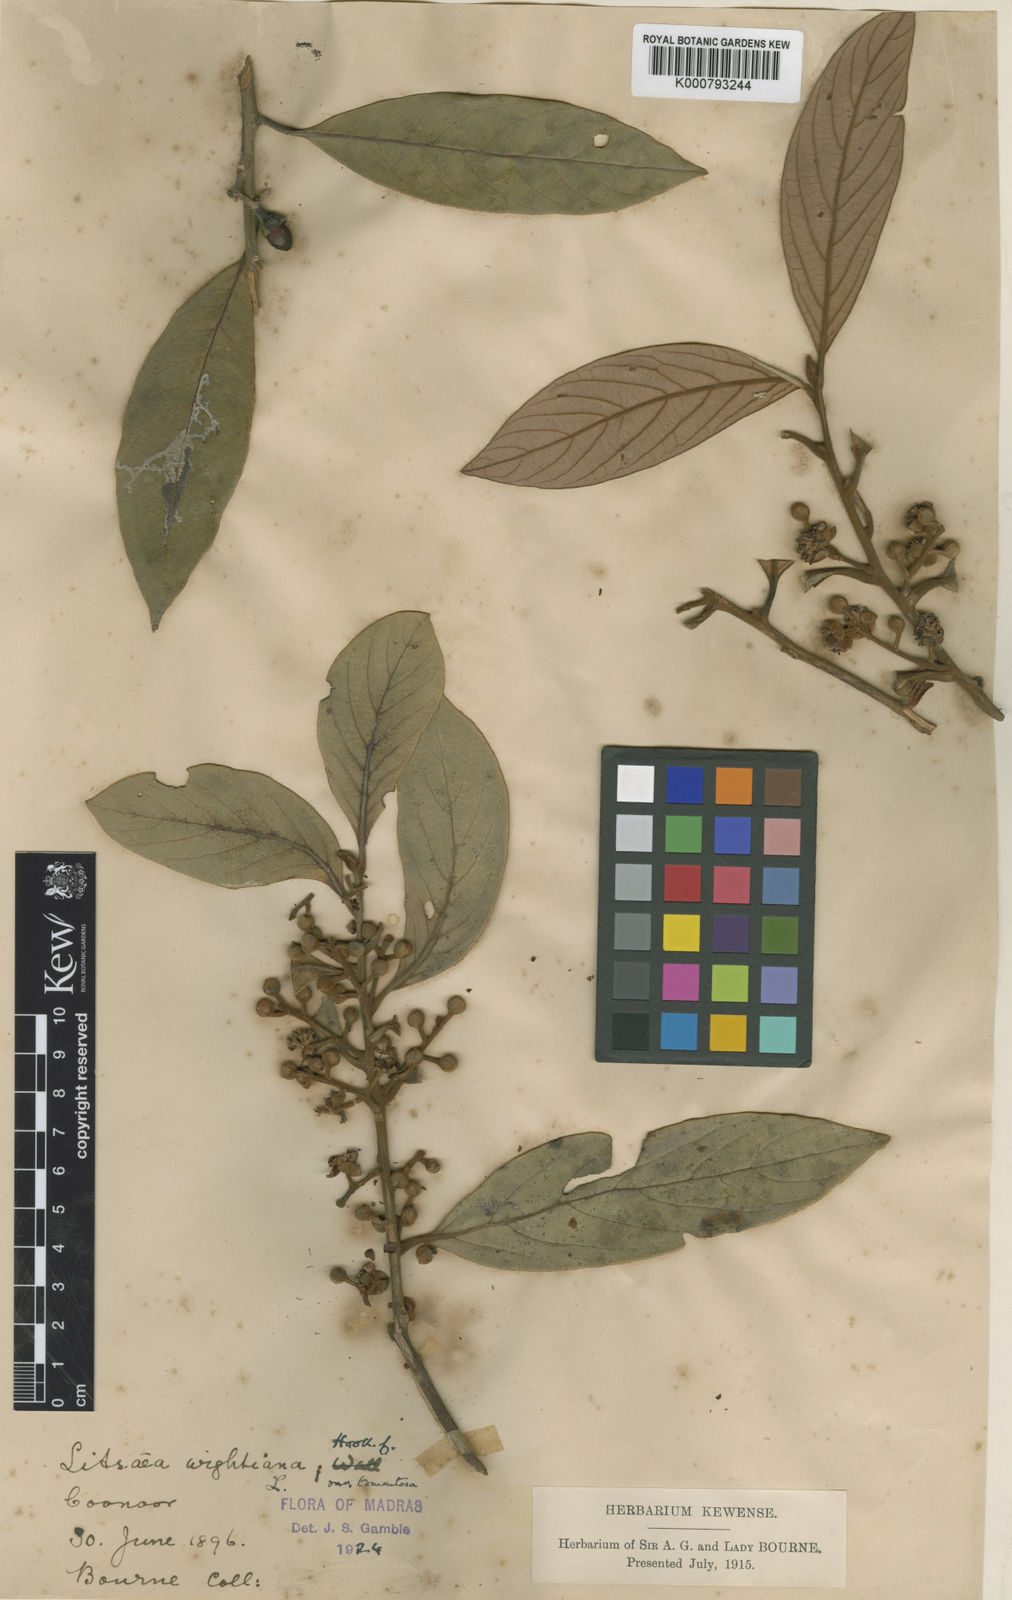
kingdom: Plantae
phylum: Tracheophyta
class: Magnoliopsida
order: Laurales
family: Lauraceae
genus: Litsea
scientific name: Litsea wightiana
